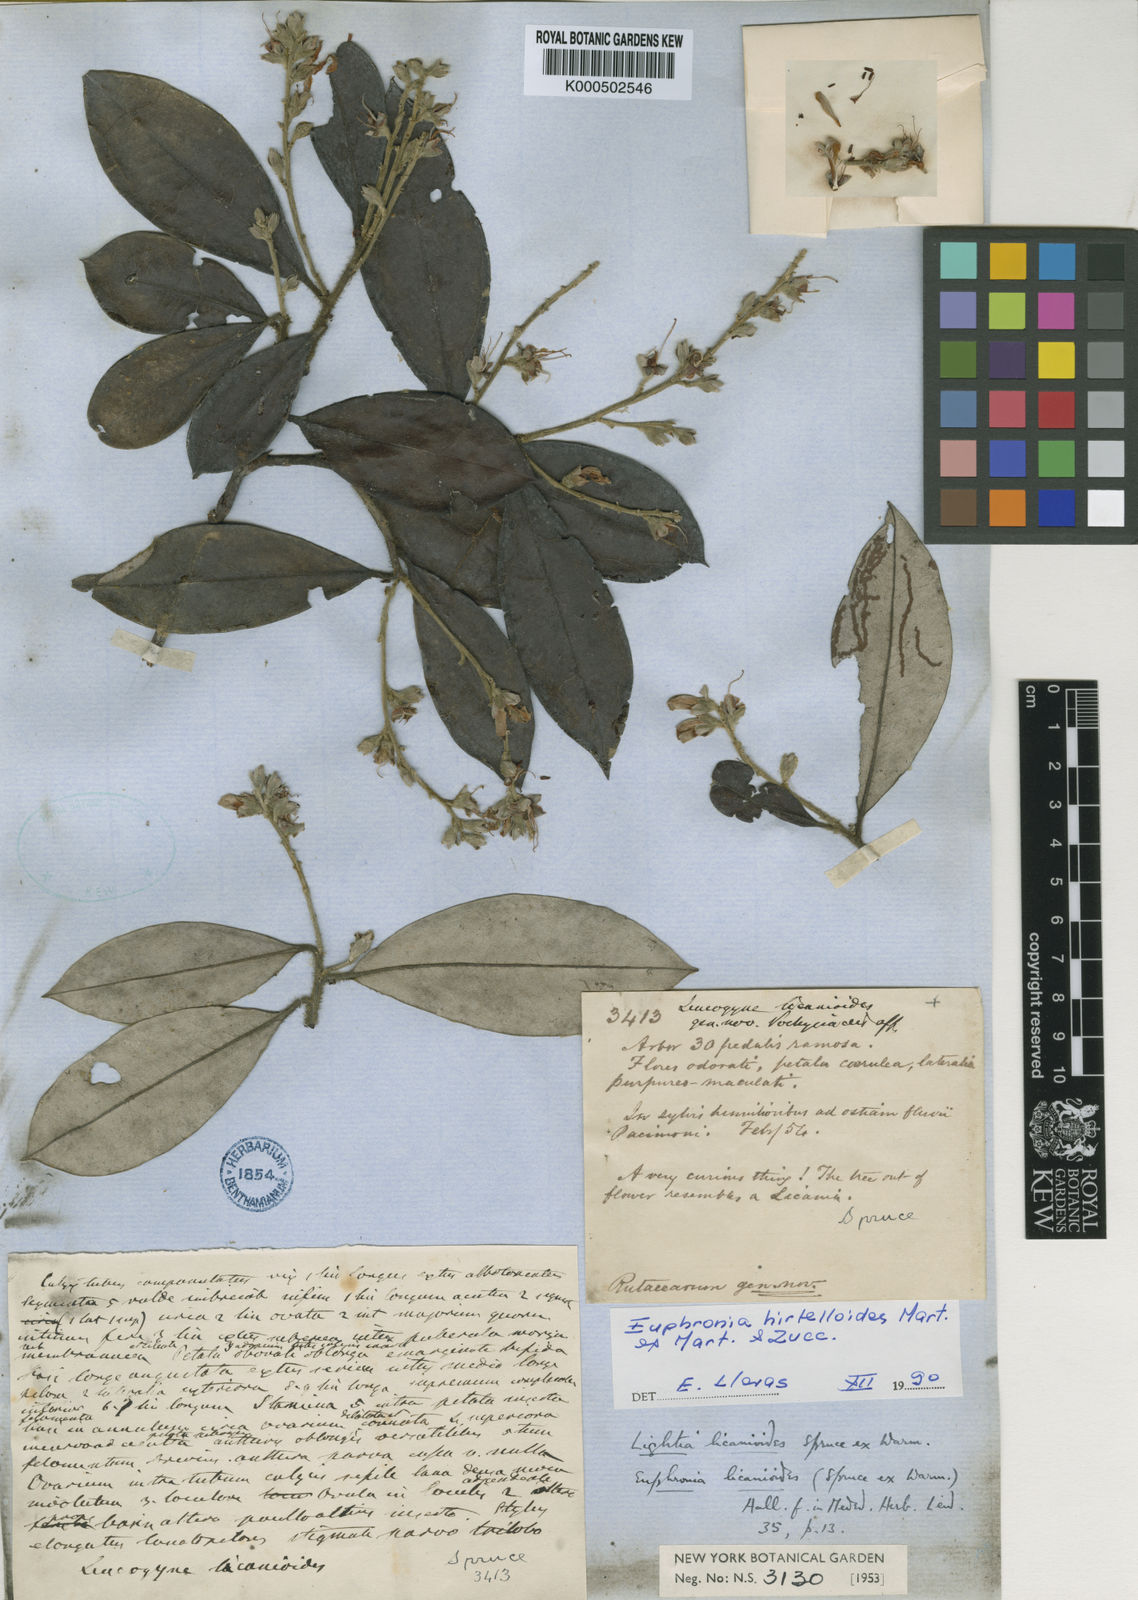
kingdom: Plantae
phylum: Tracheophyta
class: Magnoliopsida
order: Malpighiales
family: Euphroniaceae
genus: Euphronia
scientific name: Euphronia hirtelloides
